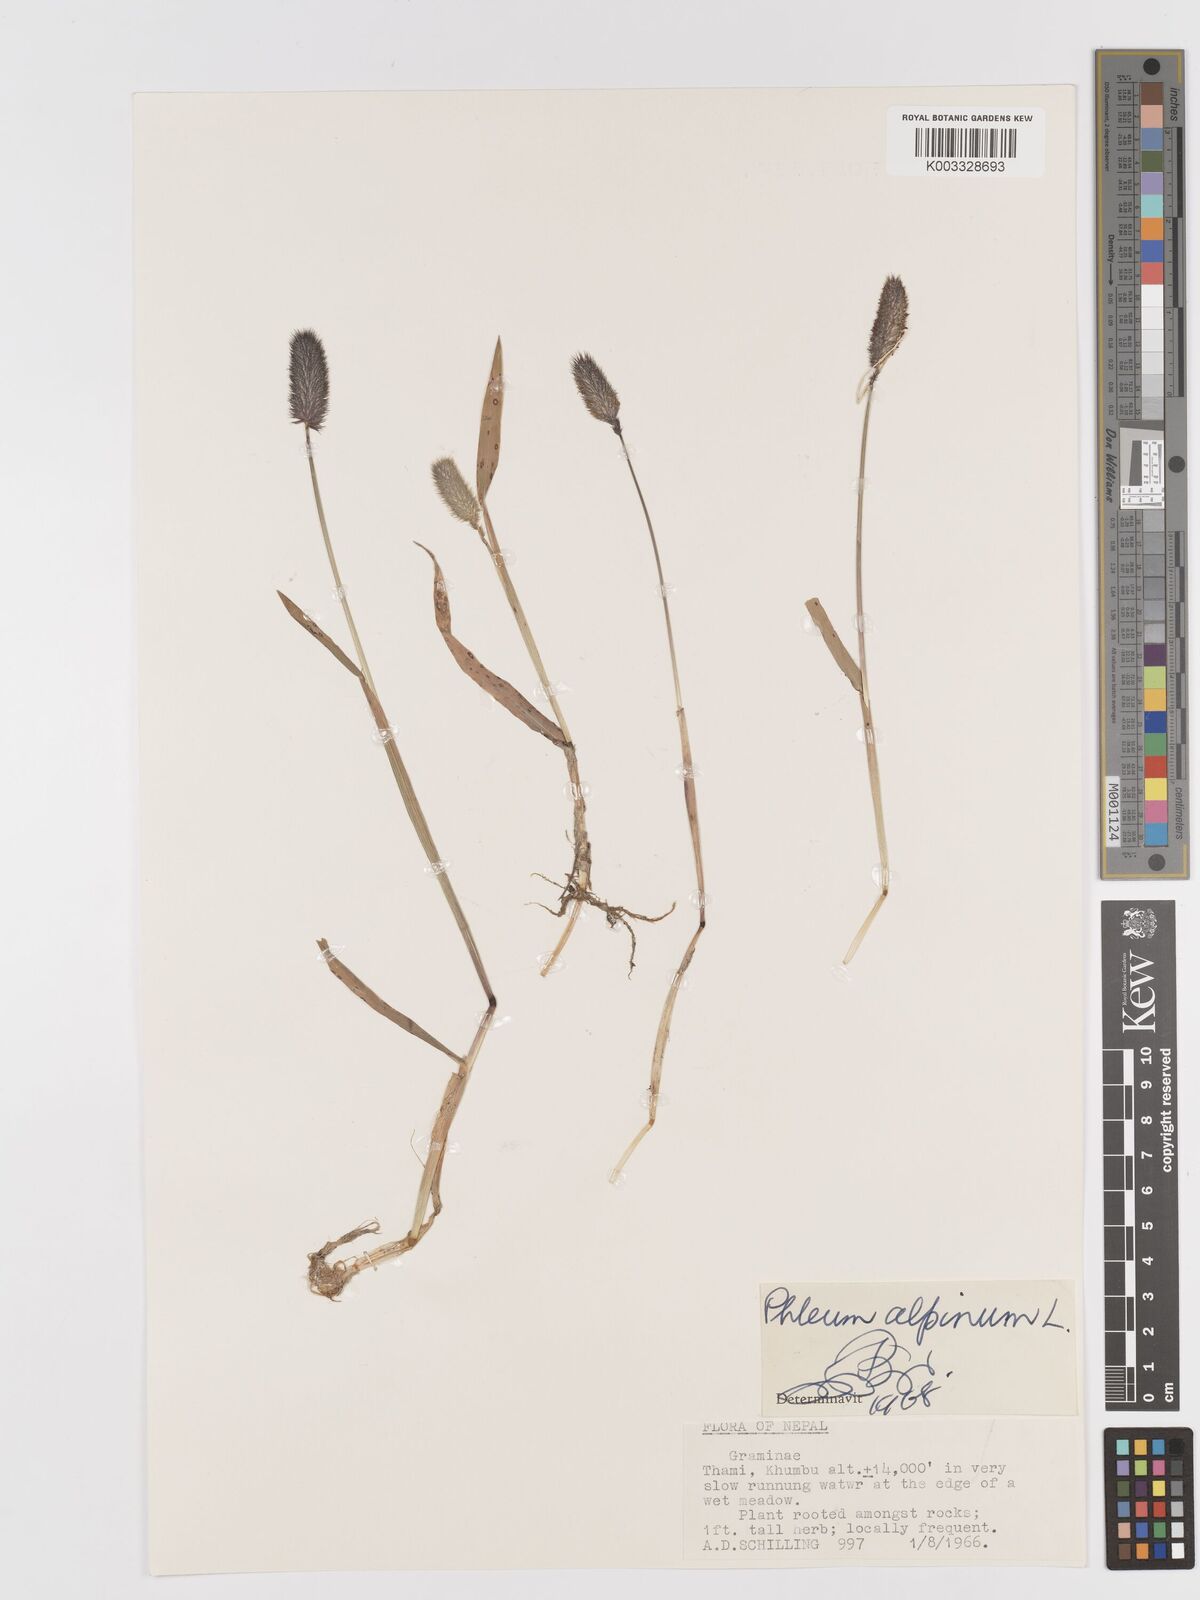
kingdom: Plantae
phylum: Tracheophyta
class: Liliopsida
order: Poales
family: Poaceae
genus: Phleum
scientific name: Phleum alpinum
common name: Alpine cat's-tail
